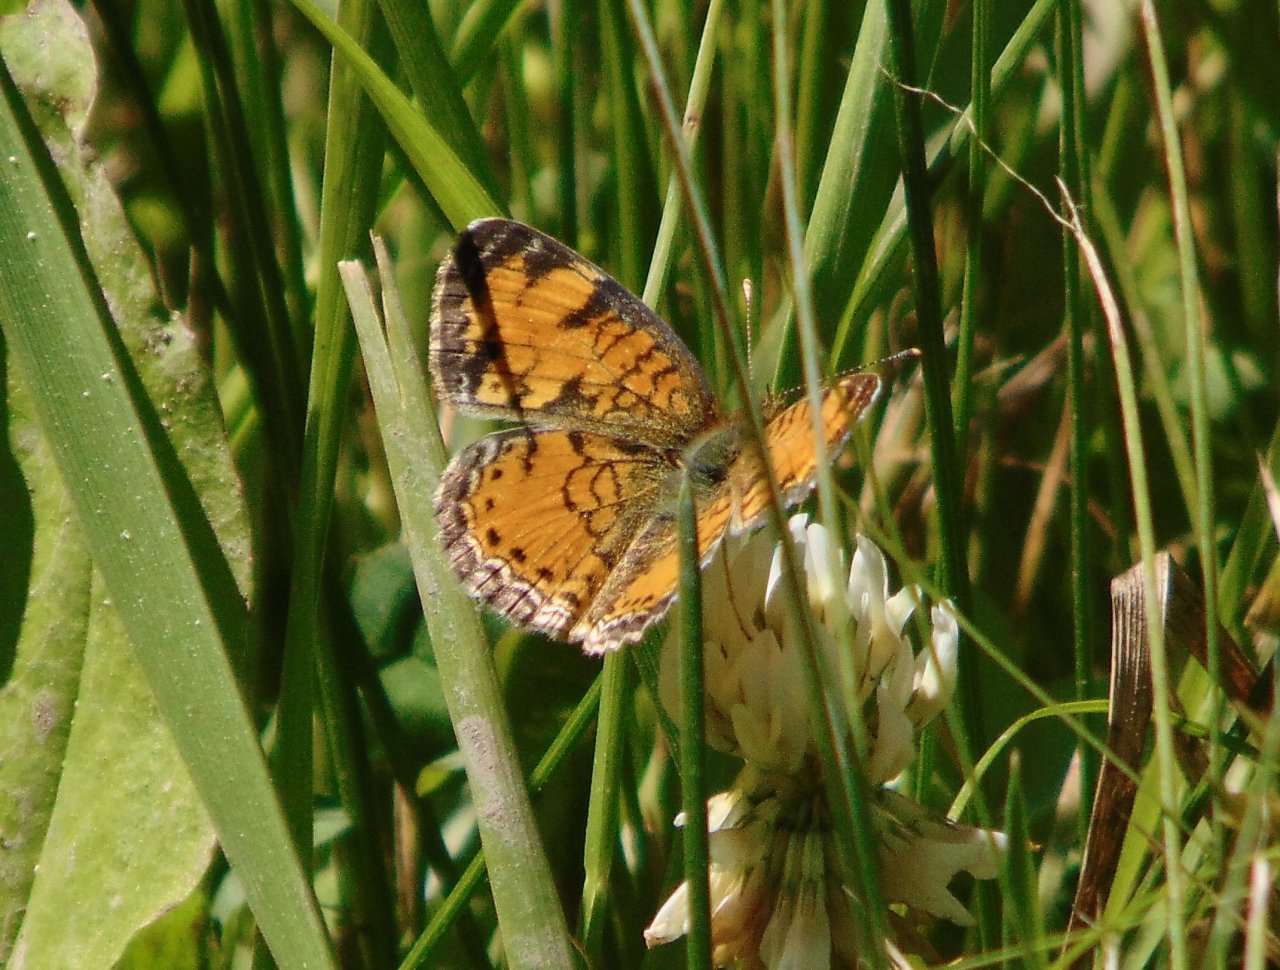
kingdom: Animalia
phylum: Arthropoda
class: Insecta
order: Lepidoptera
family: Nymphalidae
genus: Phyciodes
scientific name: Phyciodes
